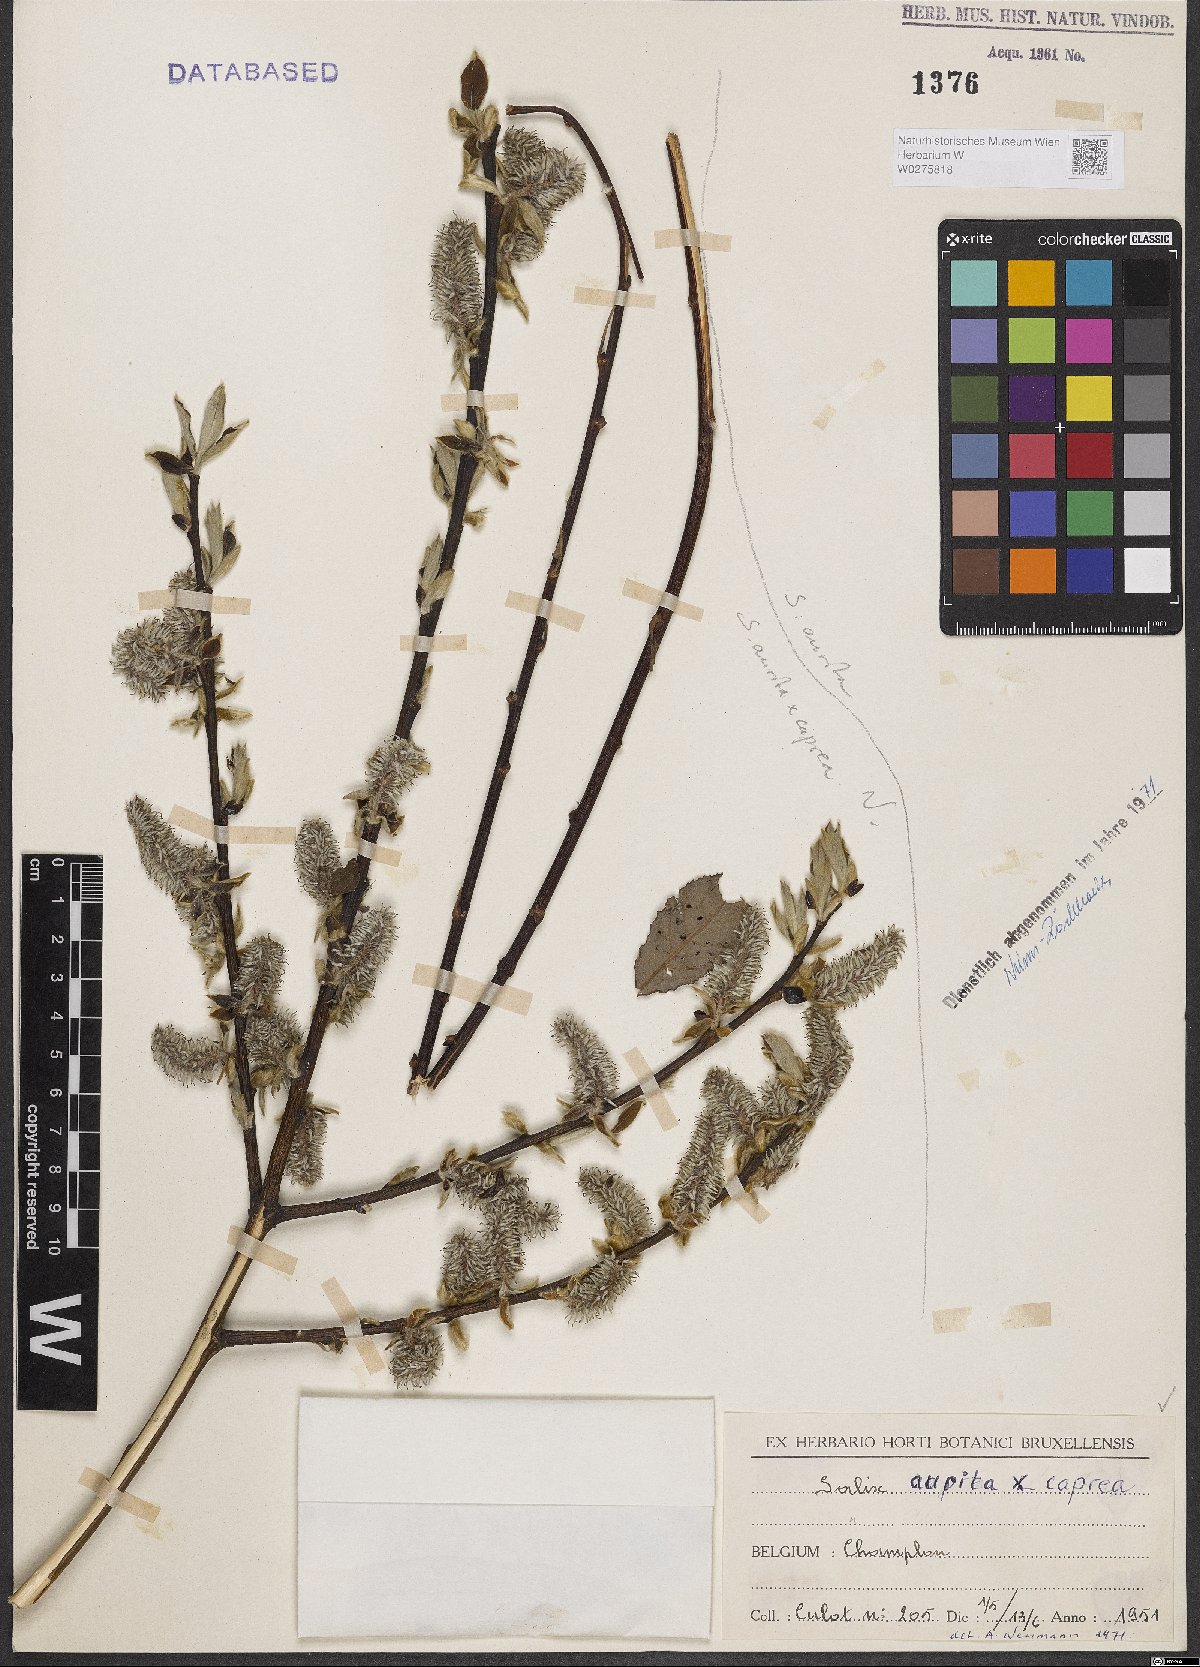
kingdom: Plantae
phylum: Tracheophyta
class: Magnoliopsida
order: Malpighiales
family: Salicaceae
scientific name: Salicaceae
